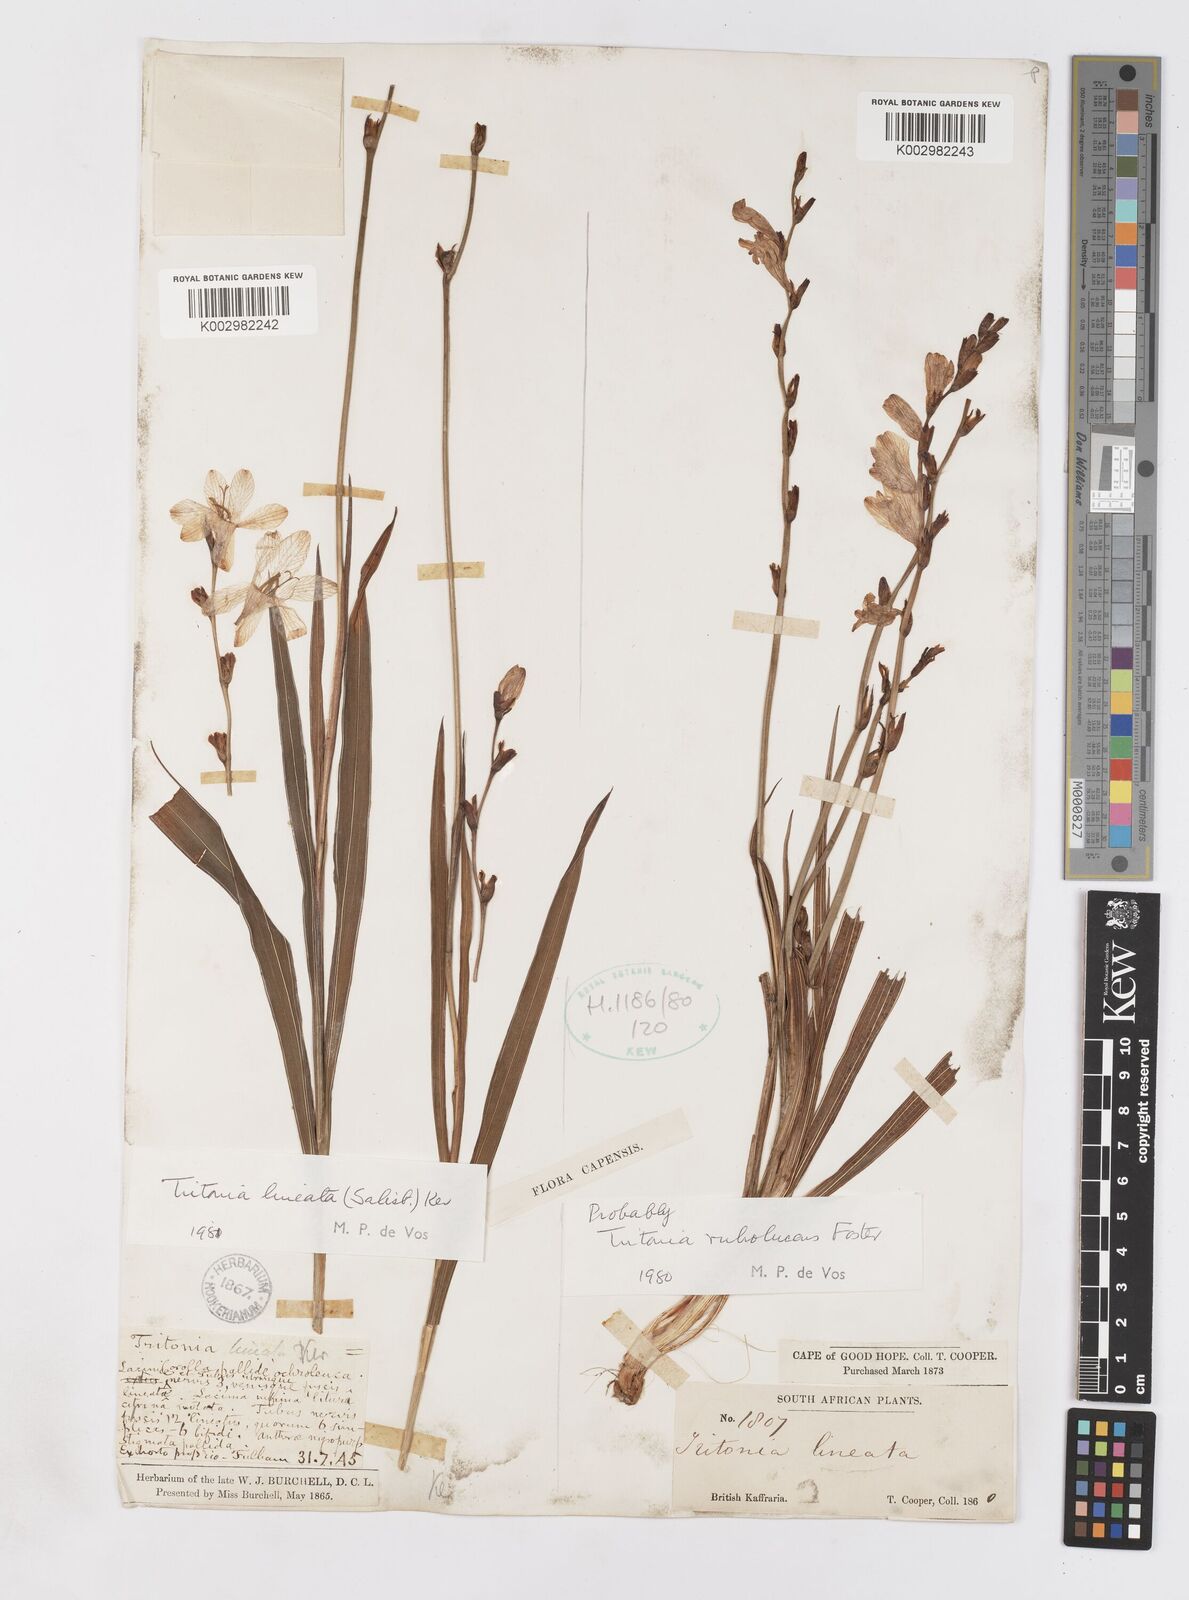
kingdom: Plantae
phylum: Tracheophyta
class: Liliopsida
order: Asparagales
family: Iridaceae
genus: Tritonia
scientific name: Tritonia gladiolaris
